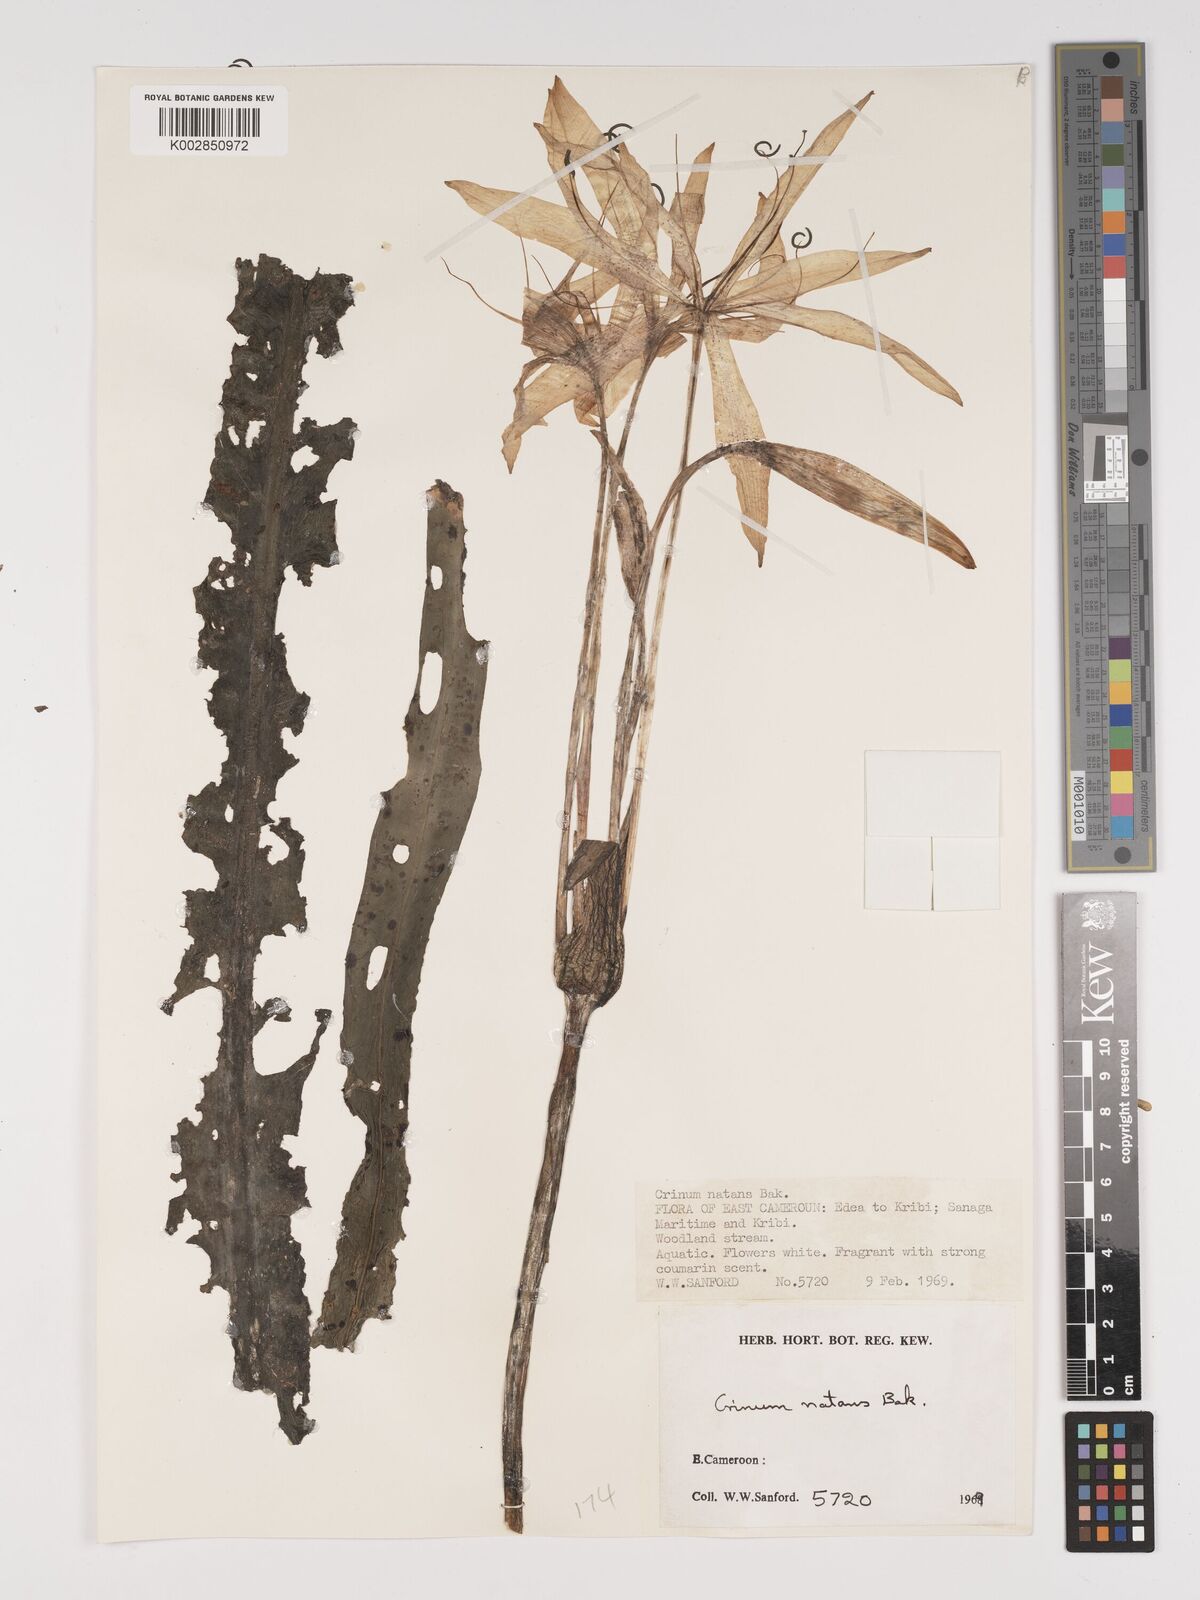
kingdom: Plantae
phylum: Tracheophyta
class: Liliopsida
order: Asparagales
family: Amaryllidaceae
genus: Crinum
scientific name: Crinum moorei
